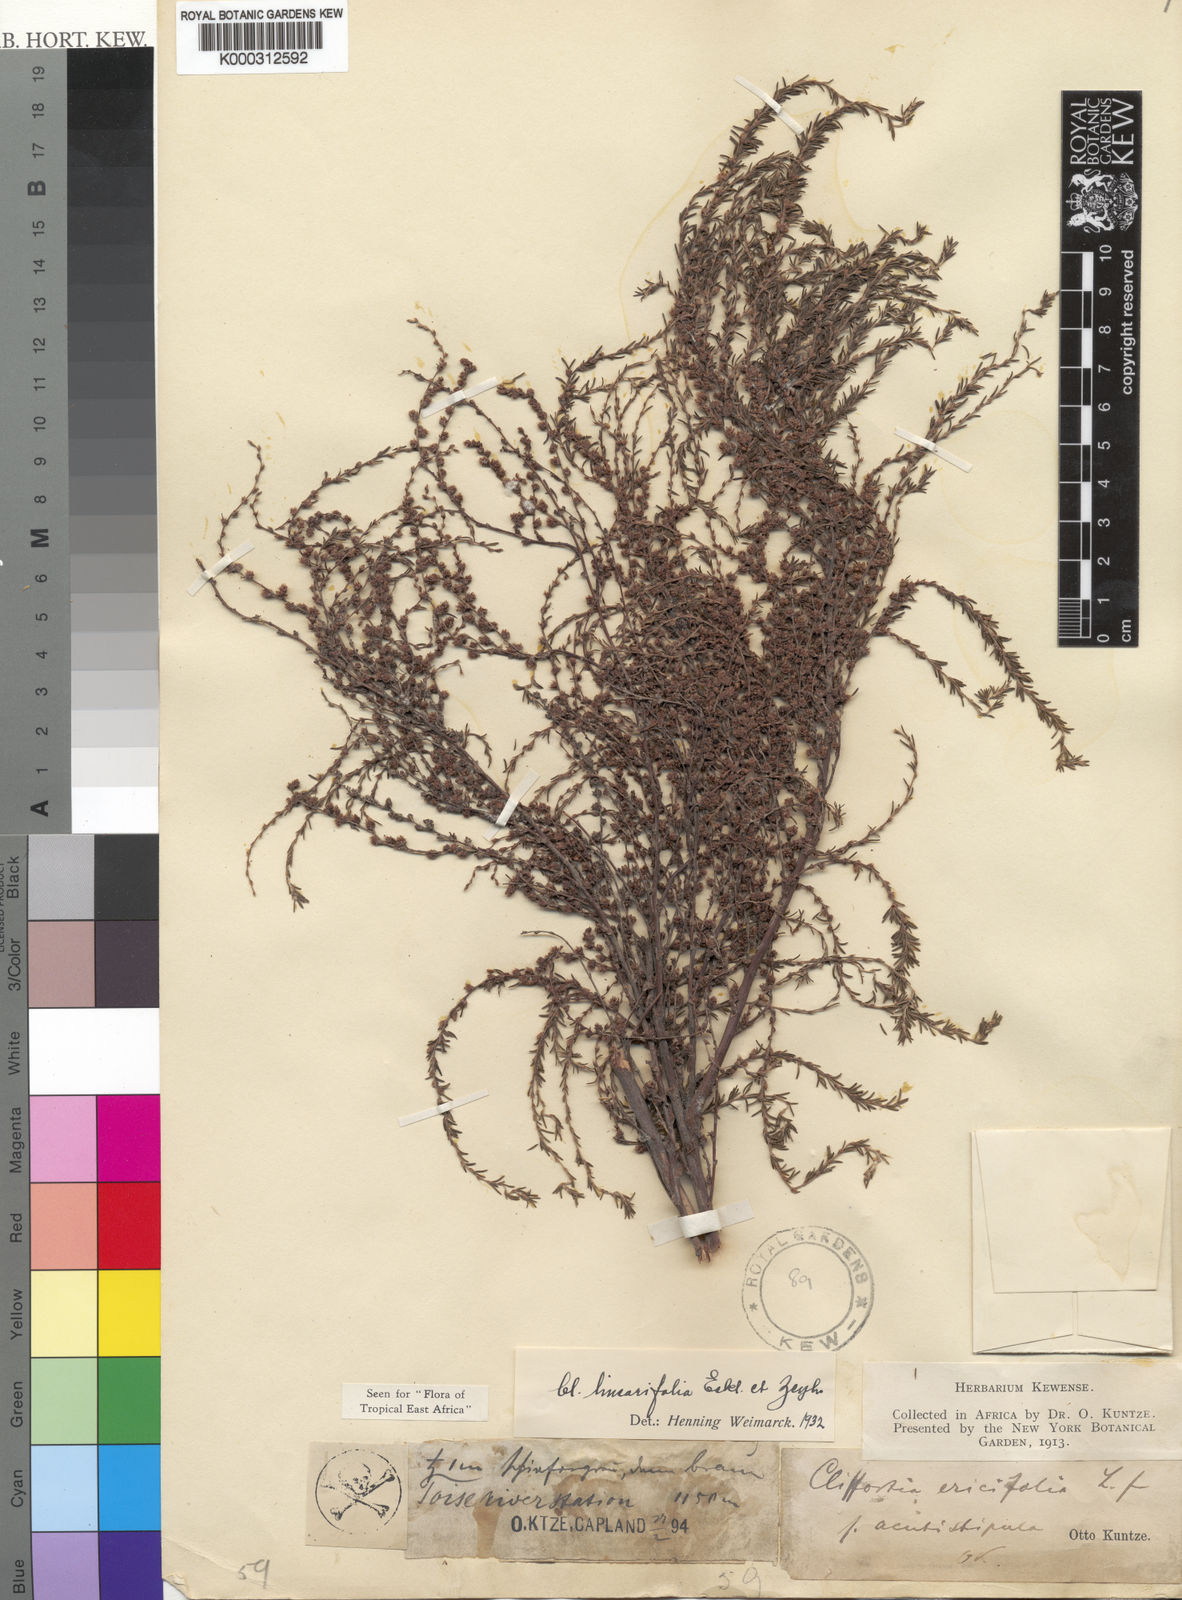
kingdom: Plantae
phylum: Tracheophyta
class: Magnoliopsida
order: Rosales
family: Rosaceae
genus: Cliffortia
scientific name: Cliffortia ericifolia
